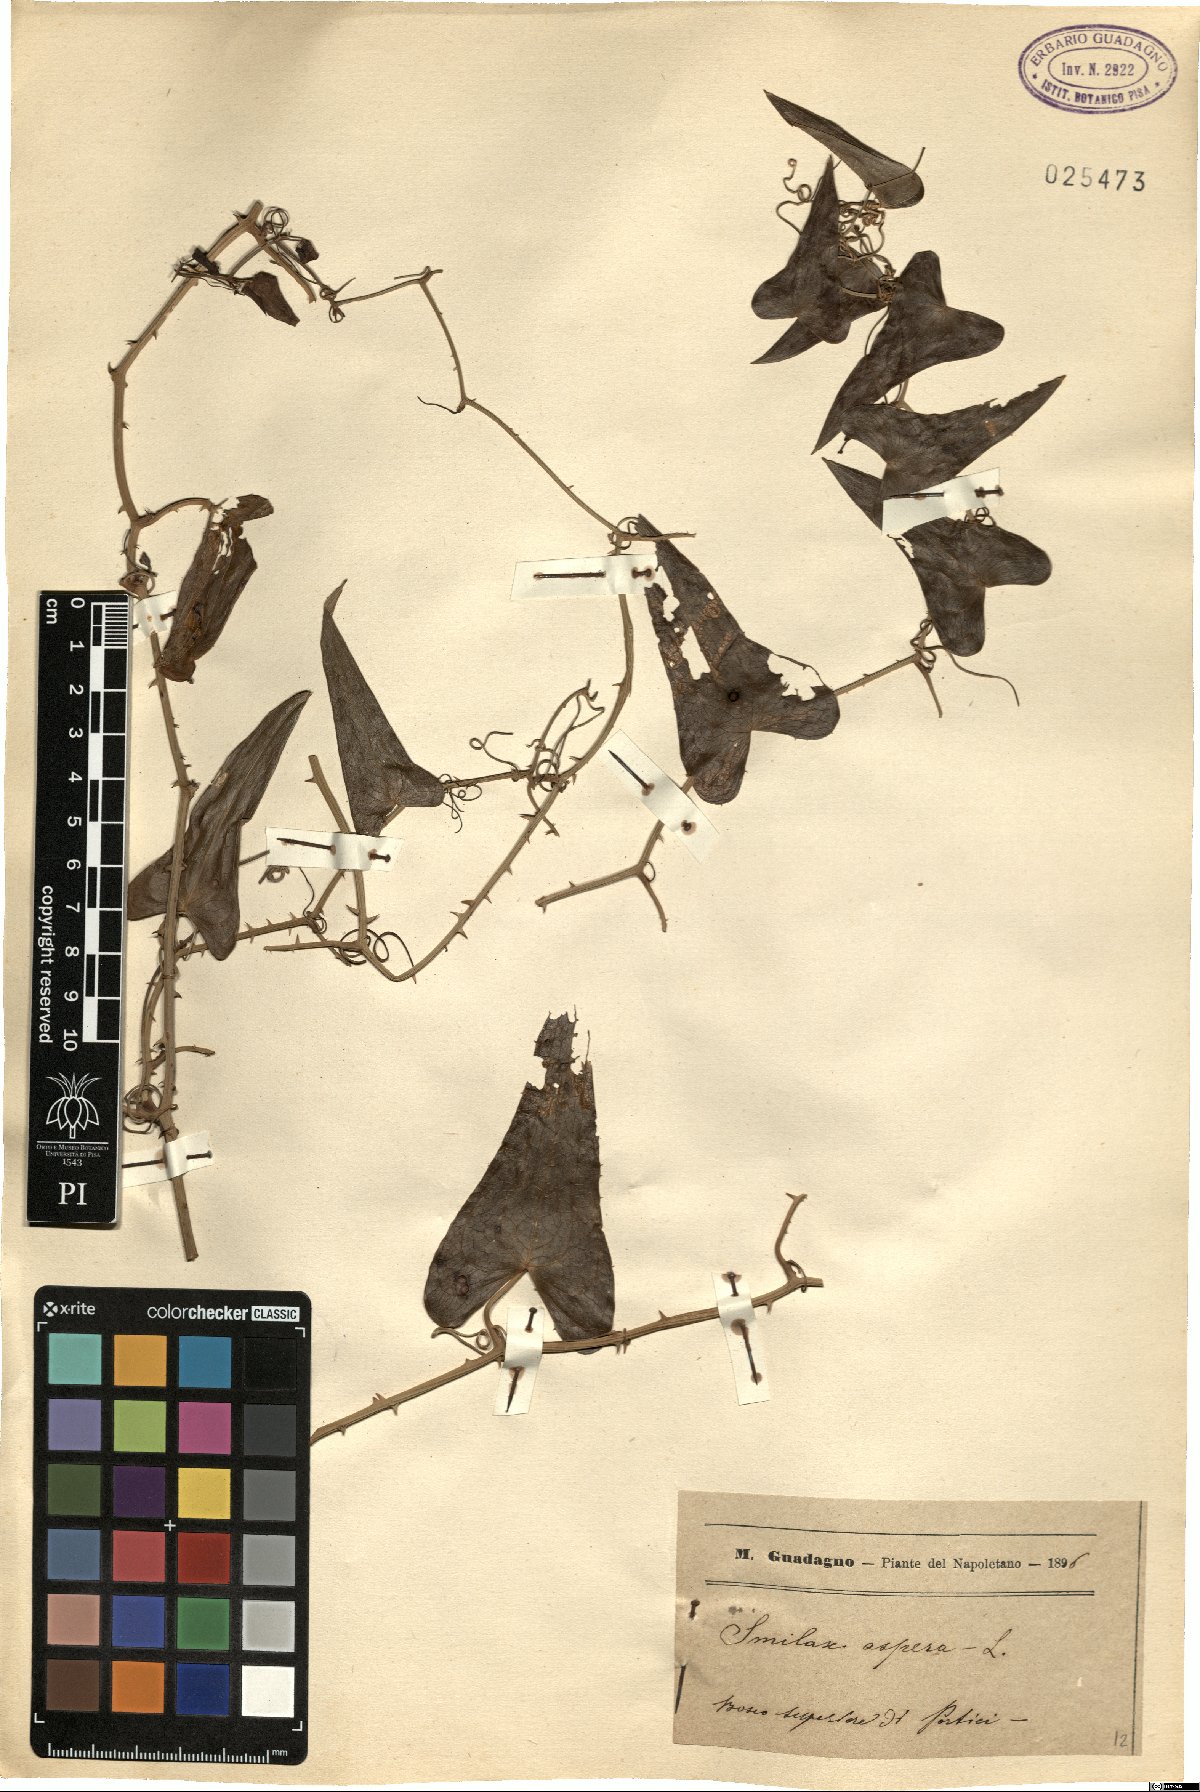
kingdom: Plantae
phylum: Tracheophyta
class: Liliopsida
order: Liliales
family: Smilacaceae
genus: Smilax
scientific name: Smilax aspera
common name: Common smilax
